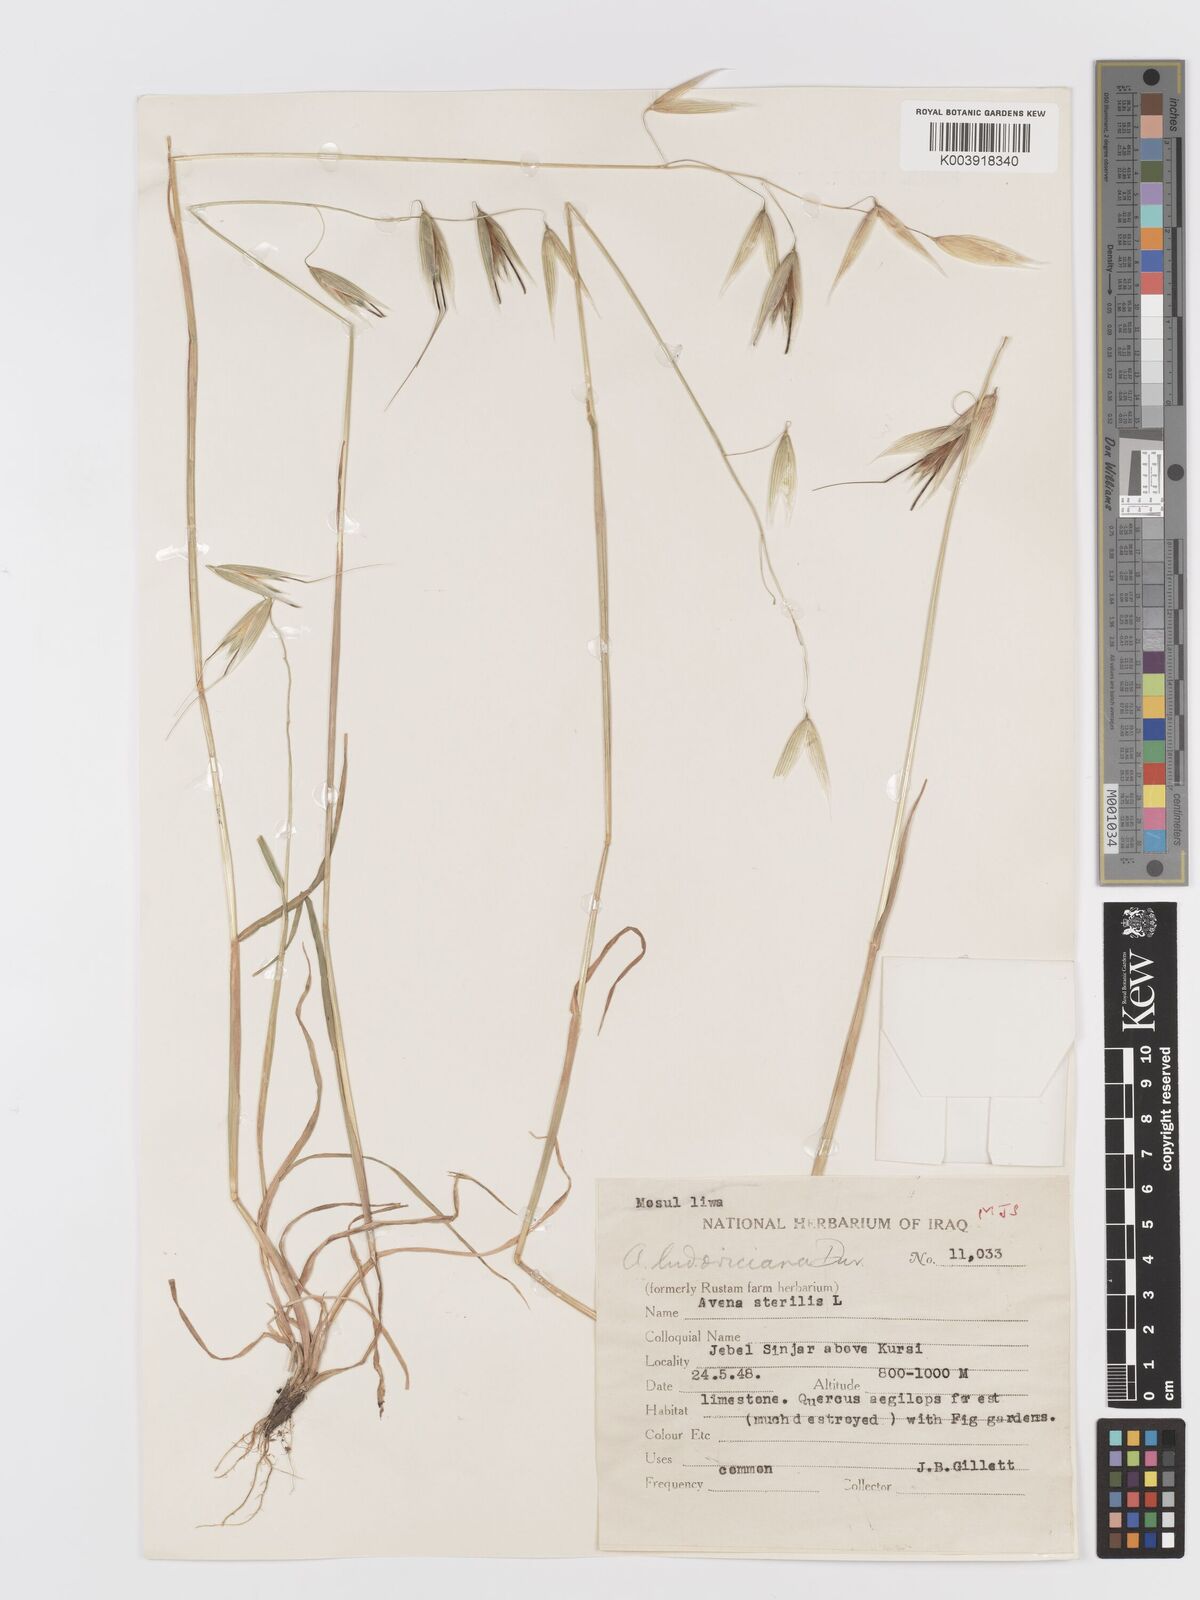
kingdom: Plantae
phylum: Tracheophyta
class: Liliopsida
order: Poales
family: Poaceae
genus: Avena
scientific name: Avena sterilis
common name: Animated oat
